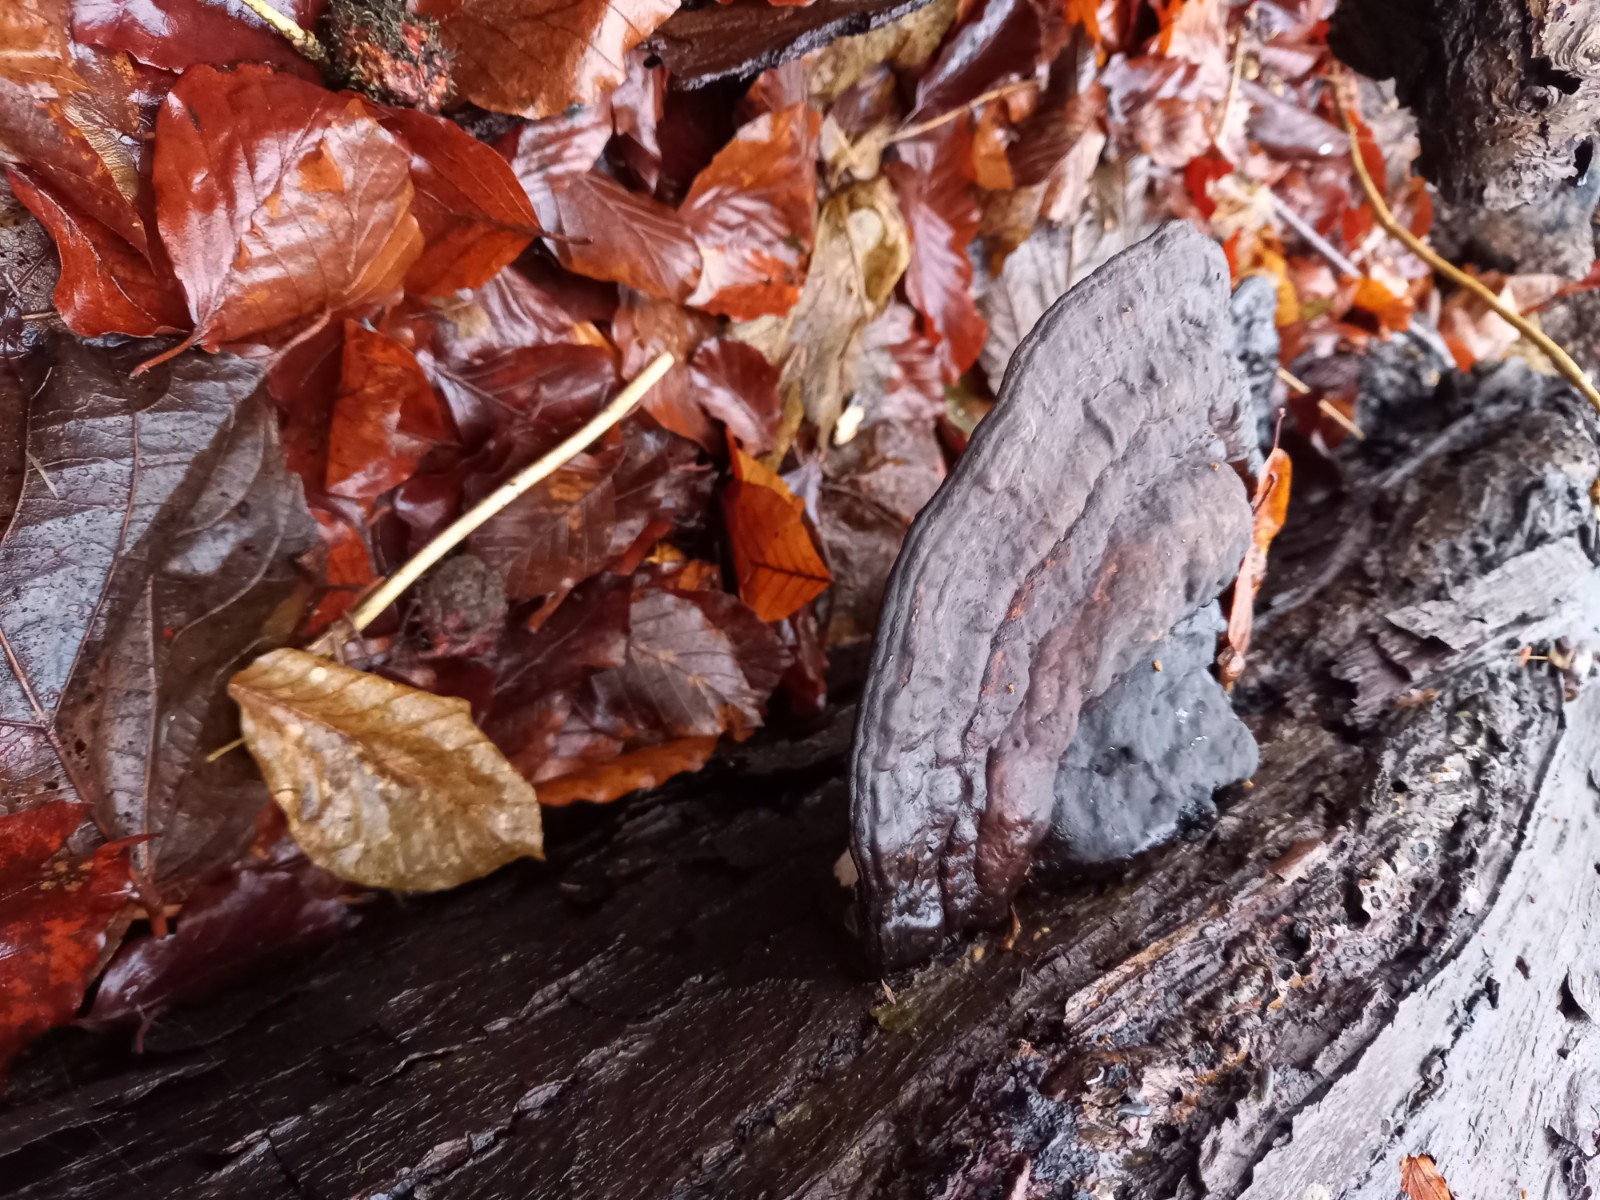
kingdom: Fungi
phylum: Basidiomycota
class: Agaricomycetes
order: Polyporales
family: Polyporaceae
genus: Ganoderma
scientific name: Ganoderma applanatum
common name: flad lakporesvamp
